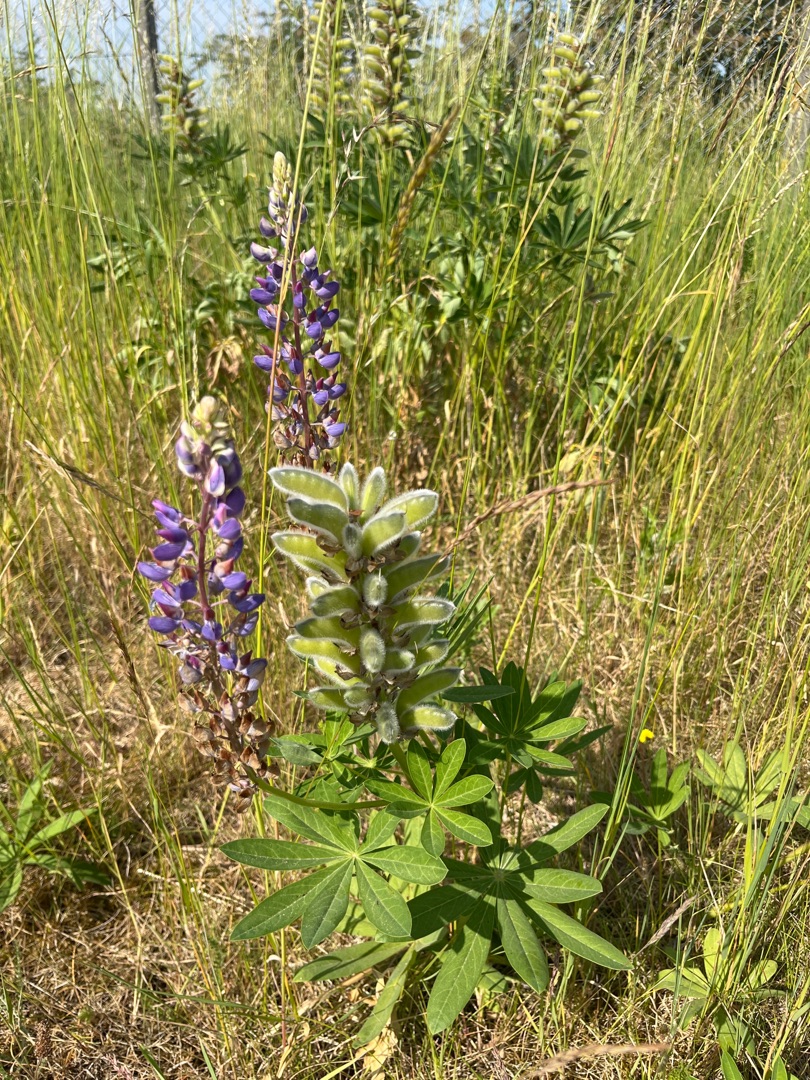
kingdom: Plantae
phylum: Tracheophyta
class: Magnoliopsida
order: Fabales
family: Fabaceae
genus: Lupinus
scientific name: Lupinus polyphyllus
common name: Mangebladet lupin
